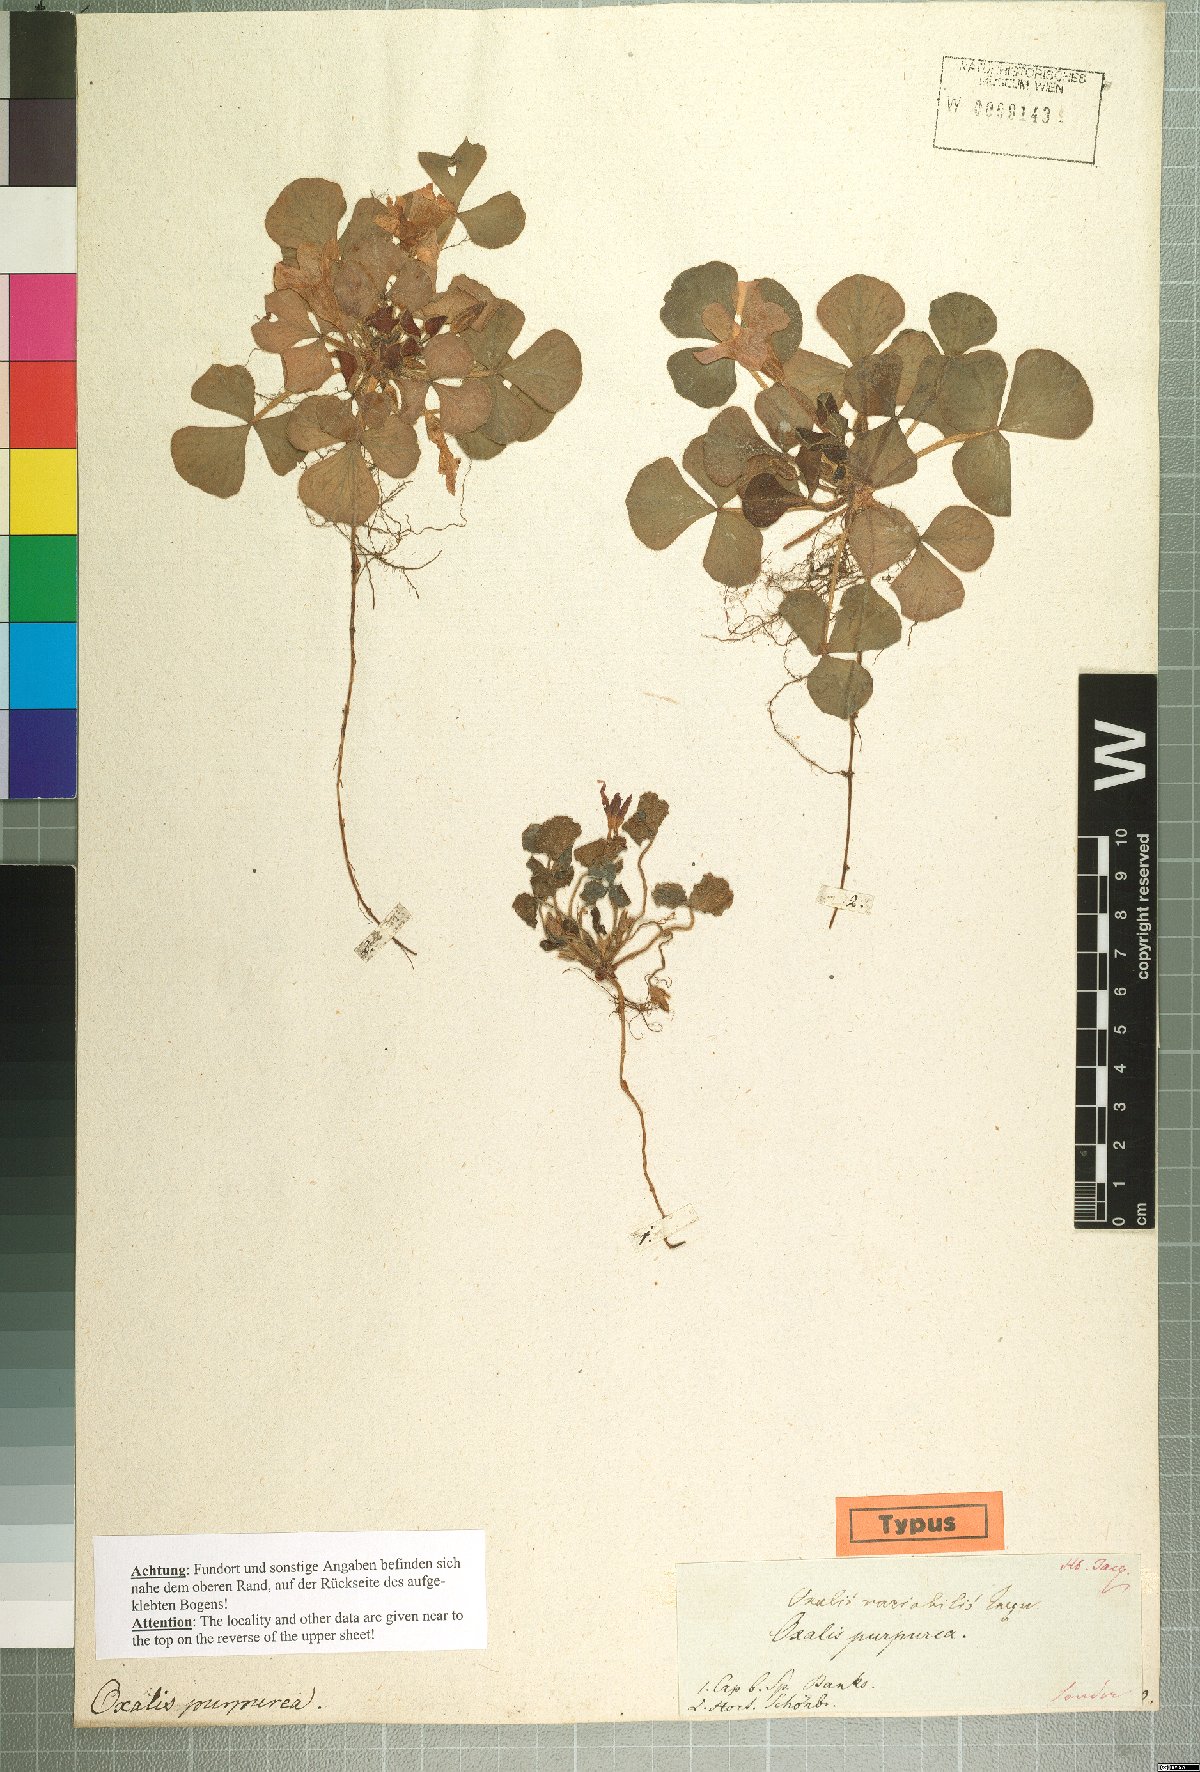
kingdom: Plantae
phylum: Tracheophyta
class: Magnoliopsida
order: Oxalidales
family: Oxalidaceae
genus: Oxalis
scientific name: Oxalis purpurea
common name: Purple woodsorrel
